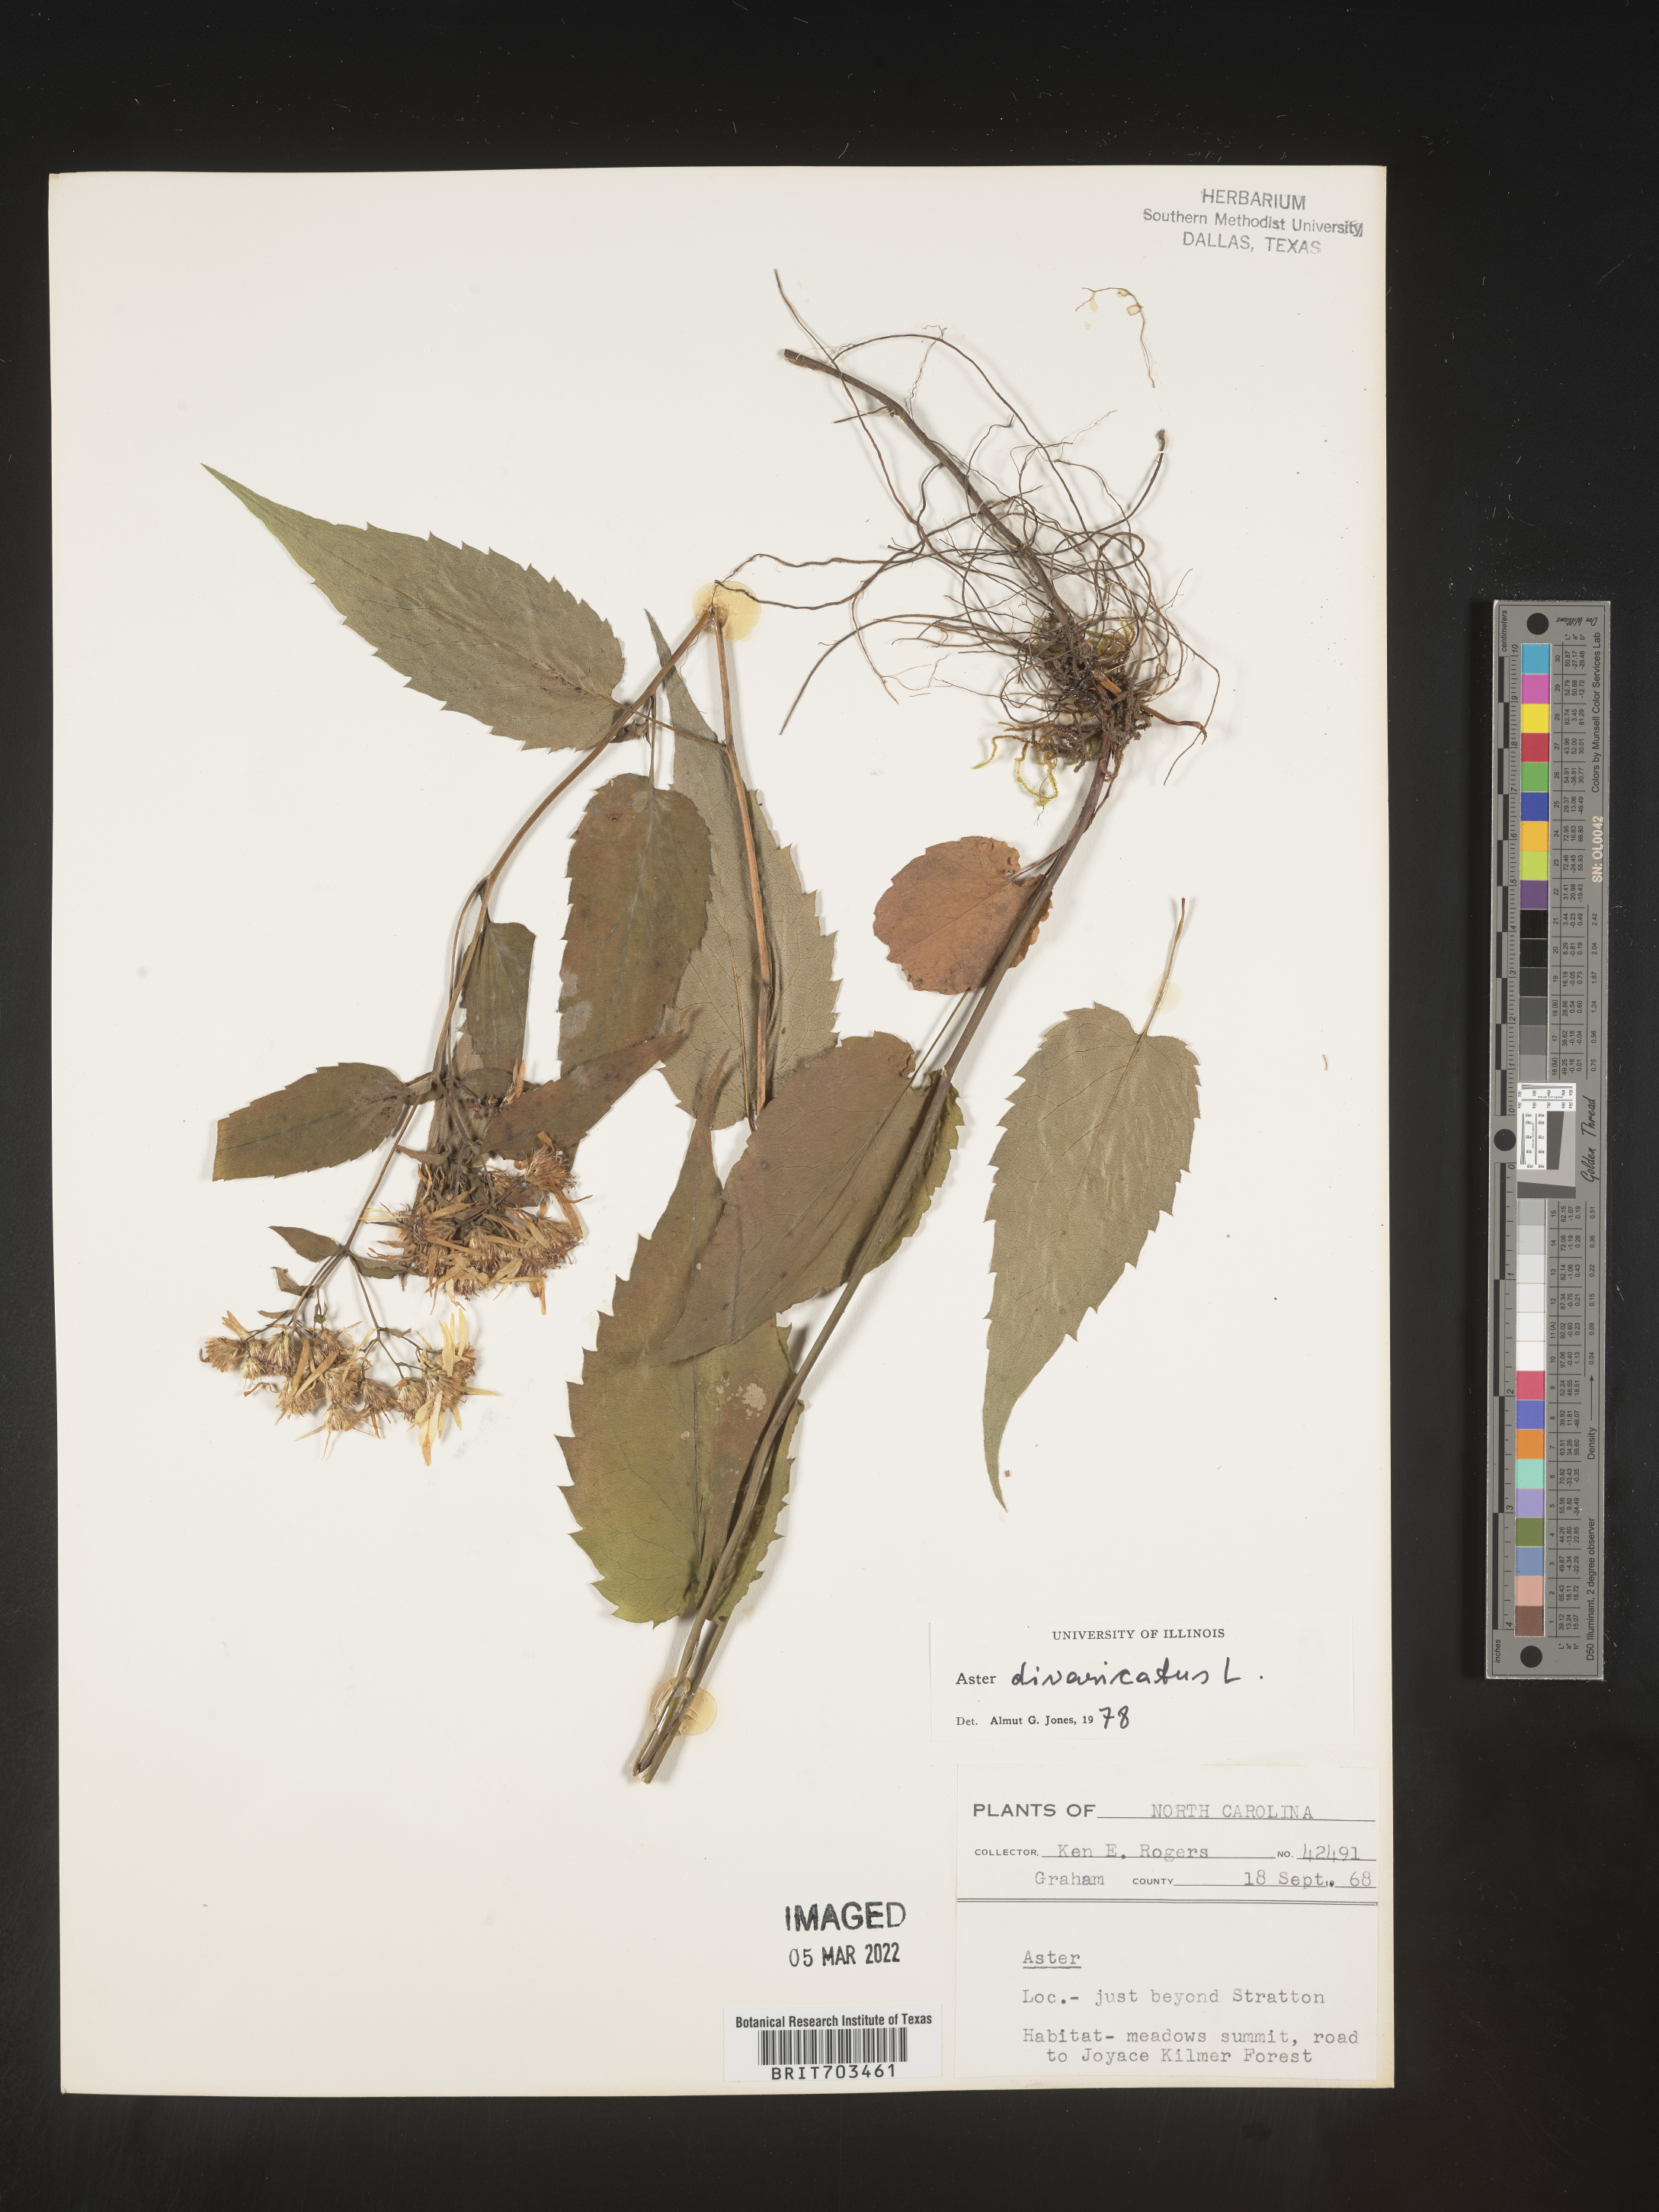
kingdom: Plantae
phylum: Tracheophyta
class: Magnoliopsida
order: Asterales
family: Asteraceae
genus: Eurybia
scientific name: Eurybia divaricata
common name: White wood aster
